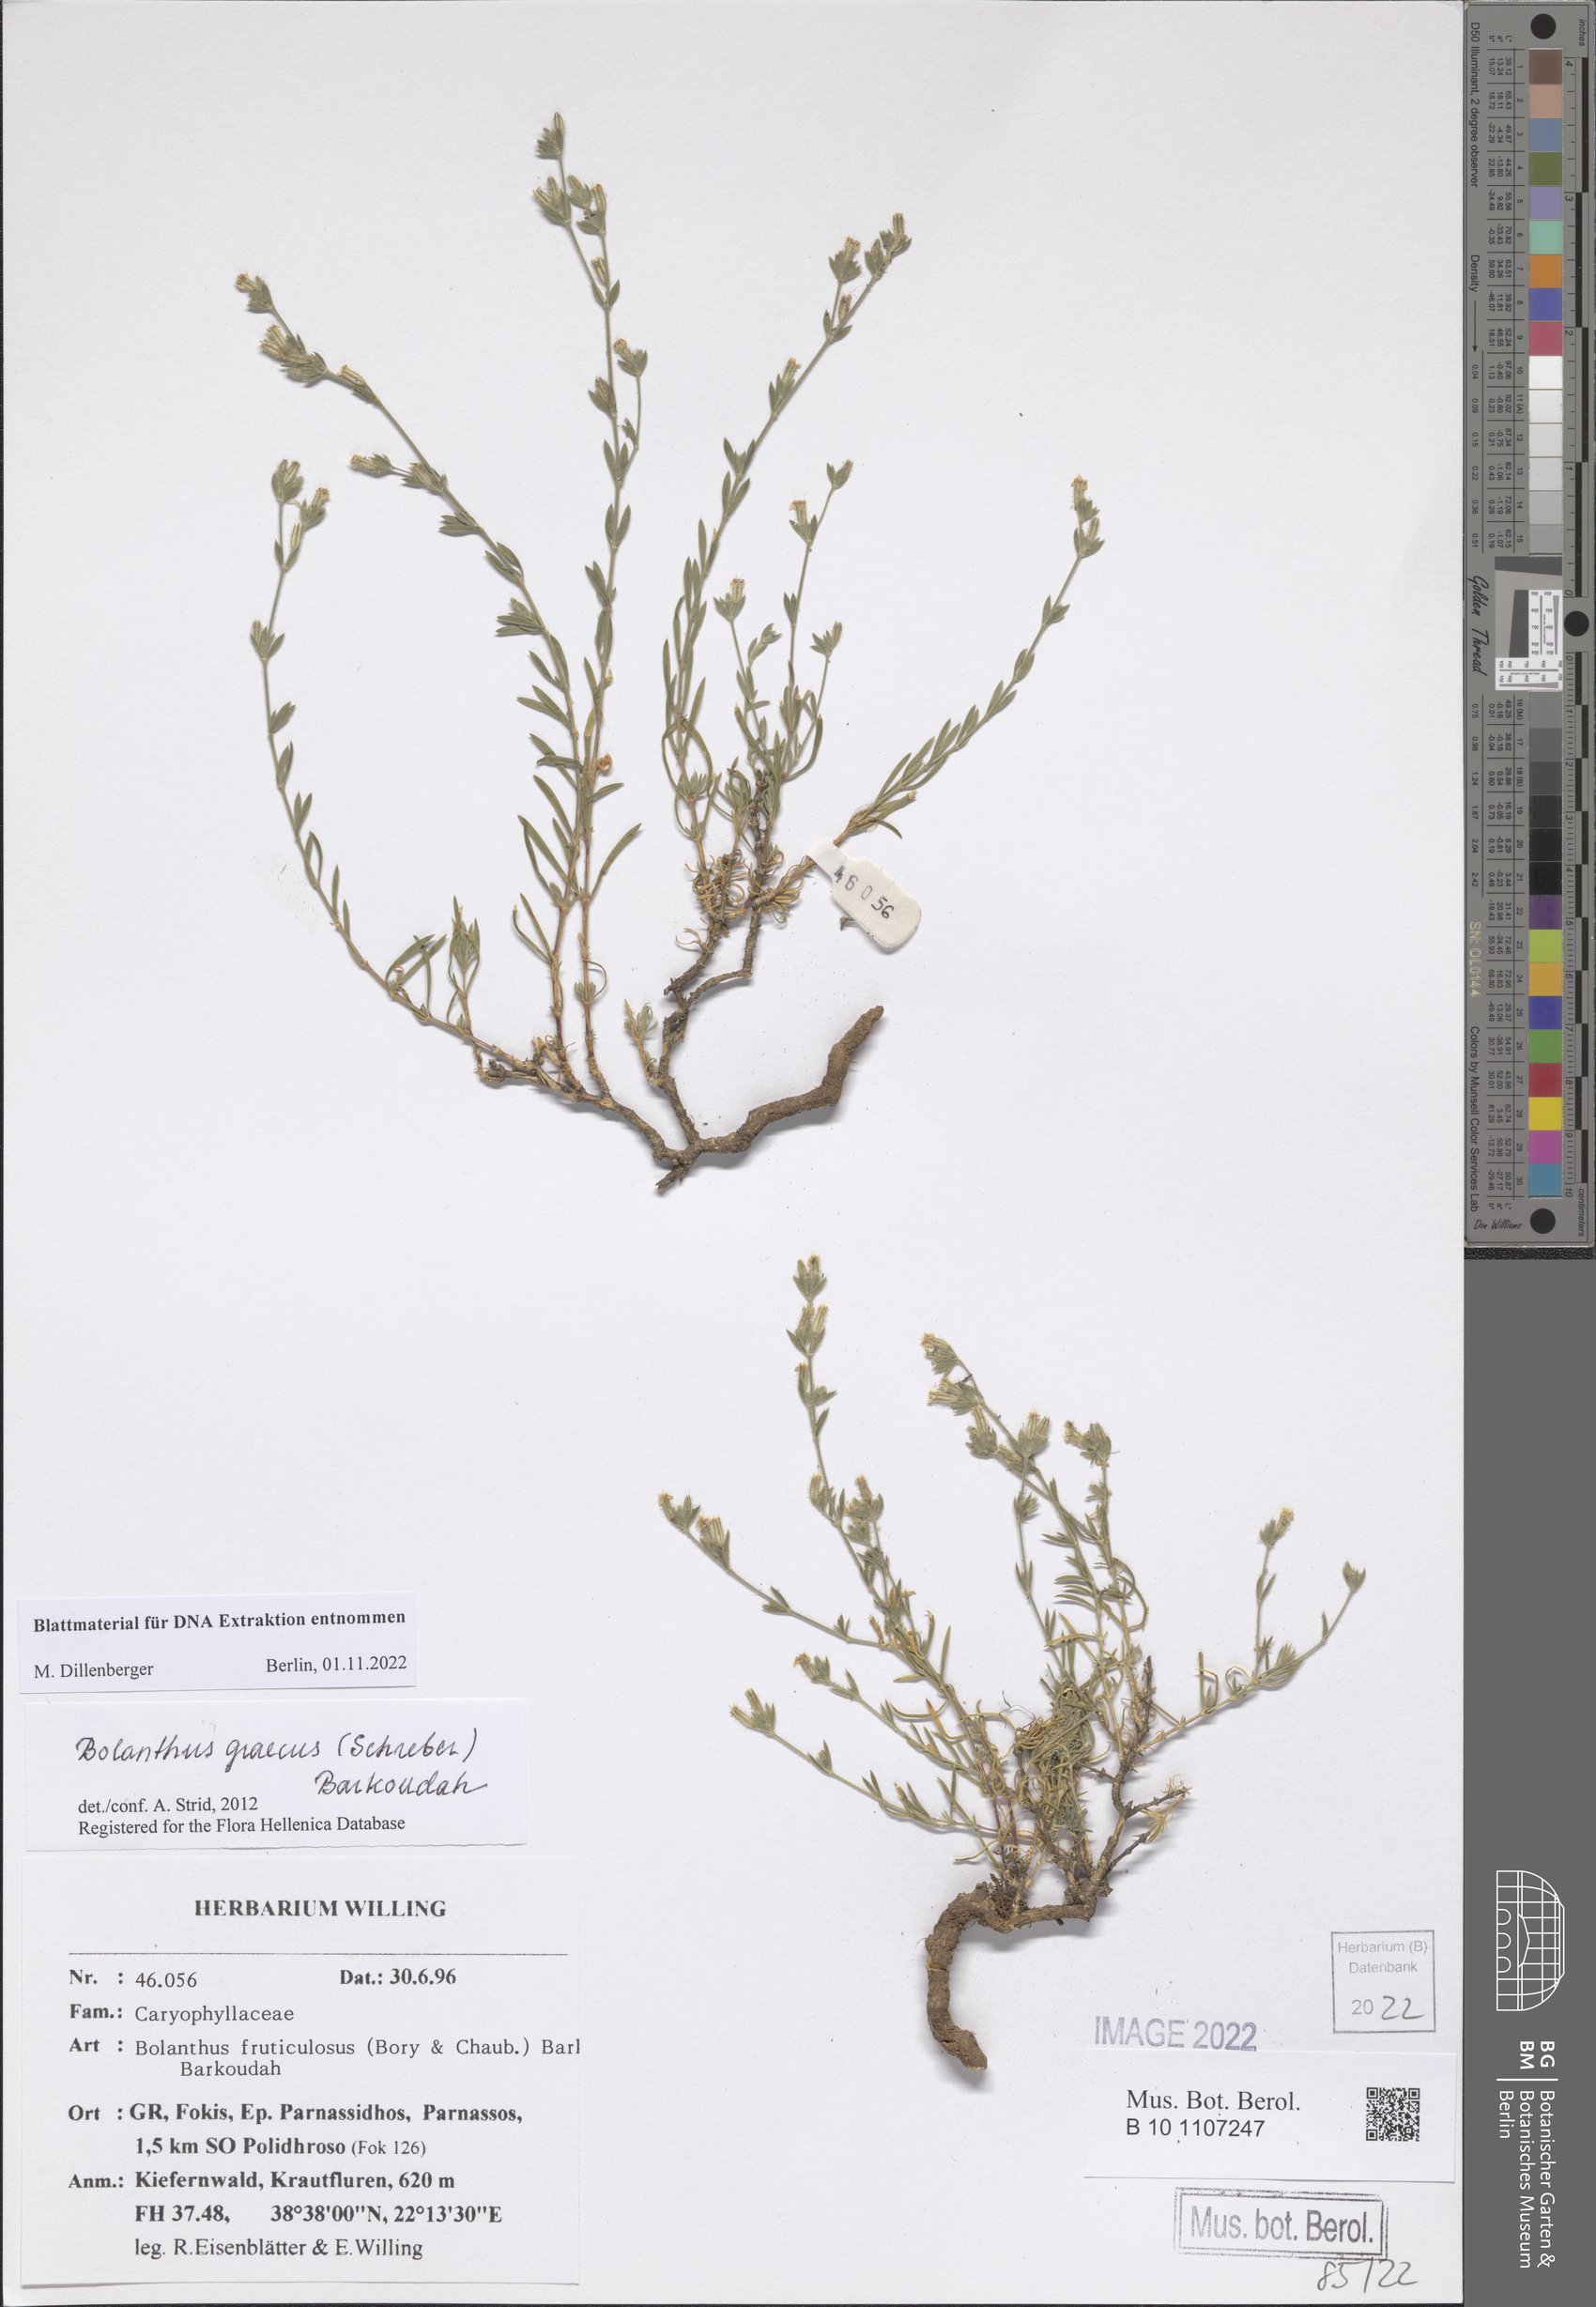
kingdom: Plantae
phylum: Tracheophyta
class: Magnoliopsida
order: Caryophyllales
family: Caryophyllaceae
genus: Graecobolanthus
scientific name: Graecobolanthus graecus
